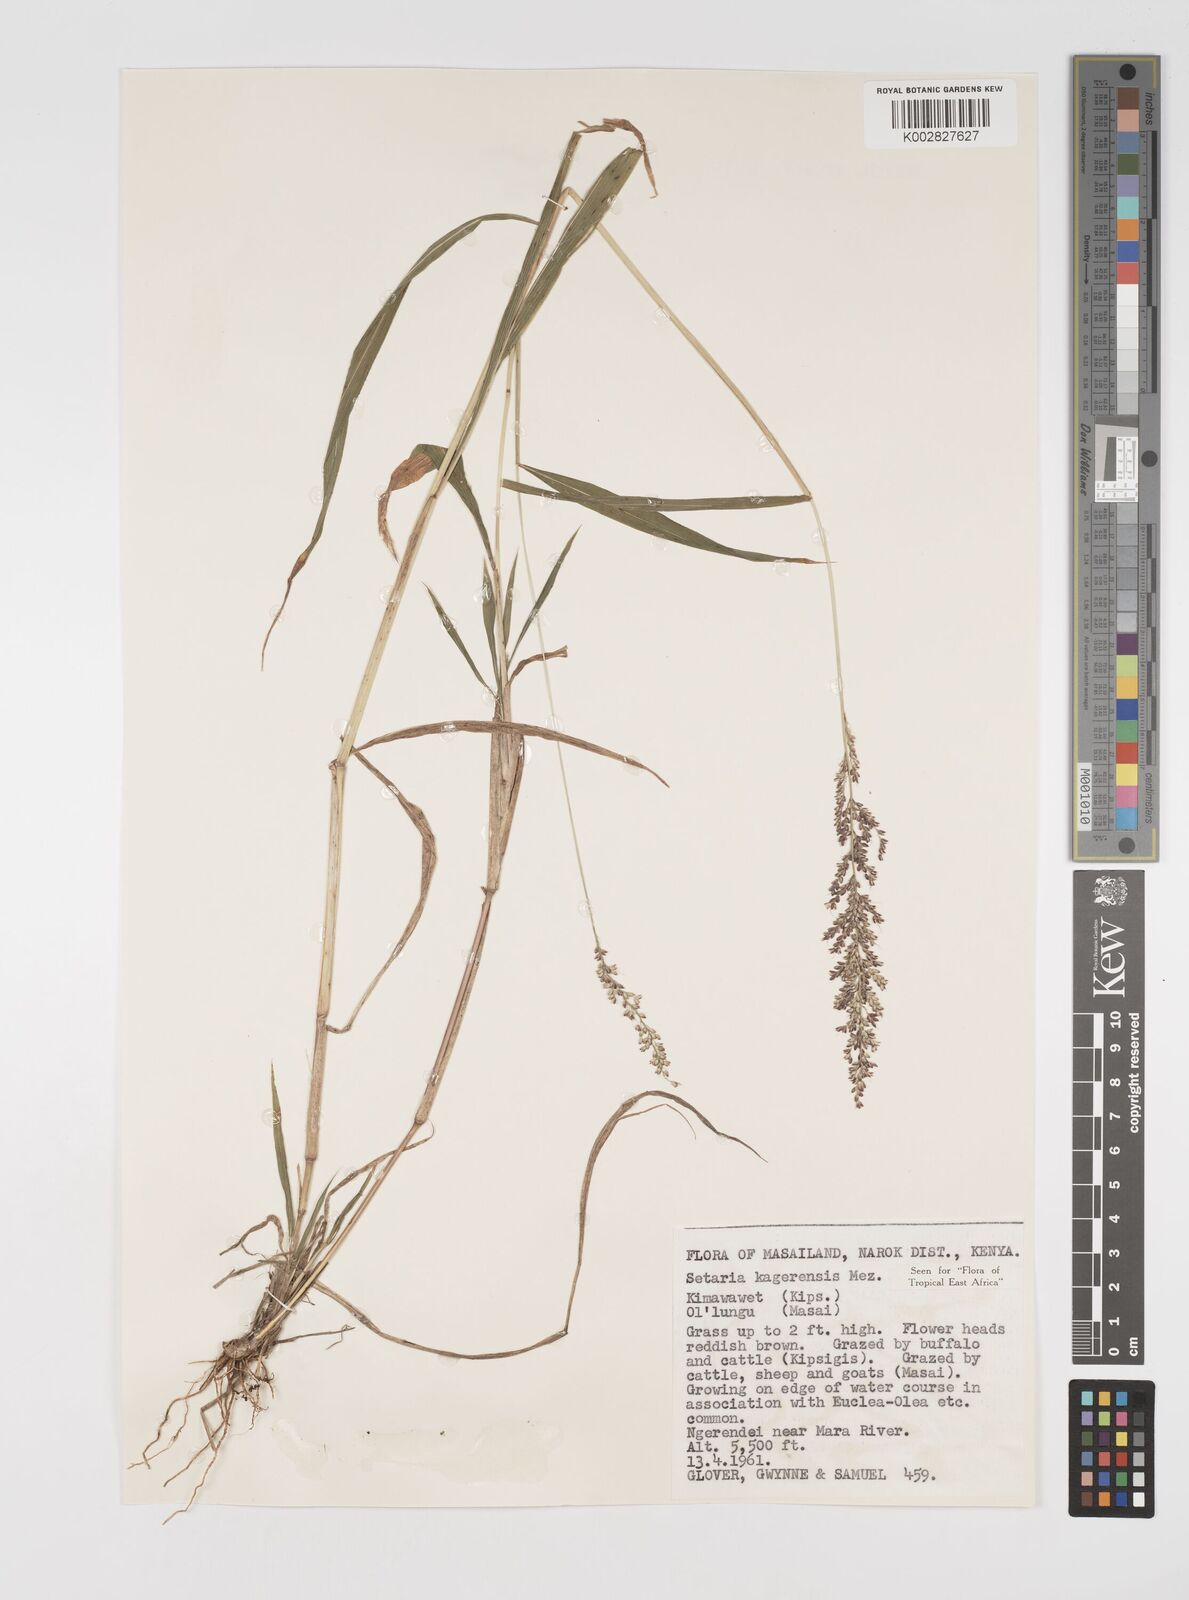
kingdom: Plantae
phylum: Tracheophyta
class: Liliopsida
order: Poales
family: Poaceae
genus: Setaria
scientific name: Setaria kagerensis
